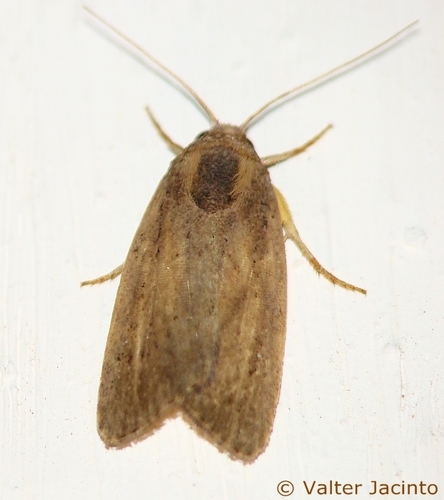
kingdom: Animalia
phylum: Arthropoda
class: Insecta
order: Lepidoptera
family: Noctuidae
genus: Athetis
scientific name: Athetis hospes
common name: Porter's rustic
